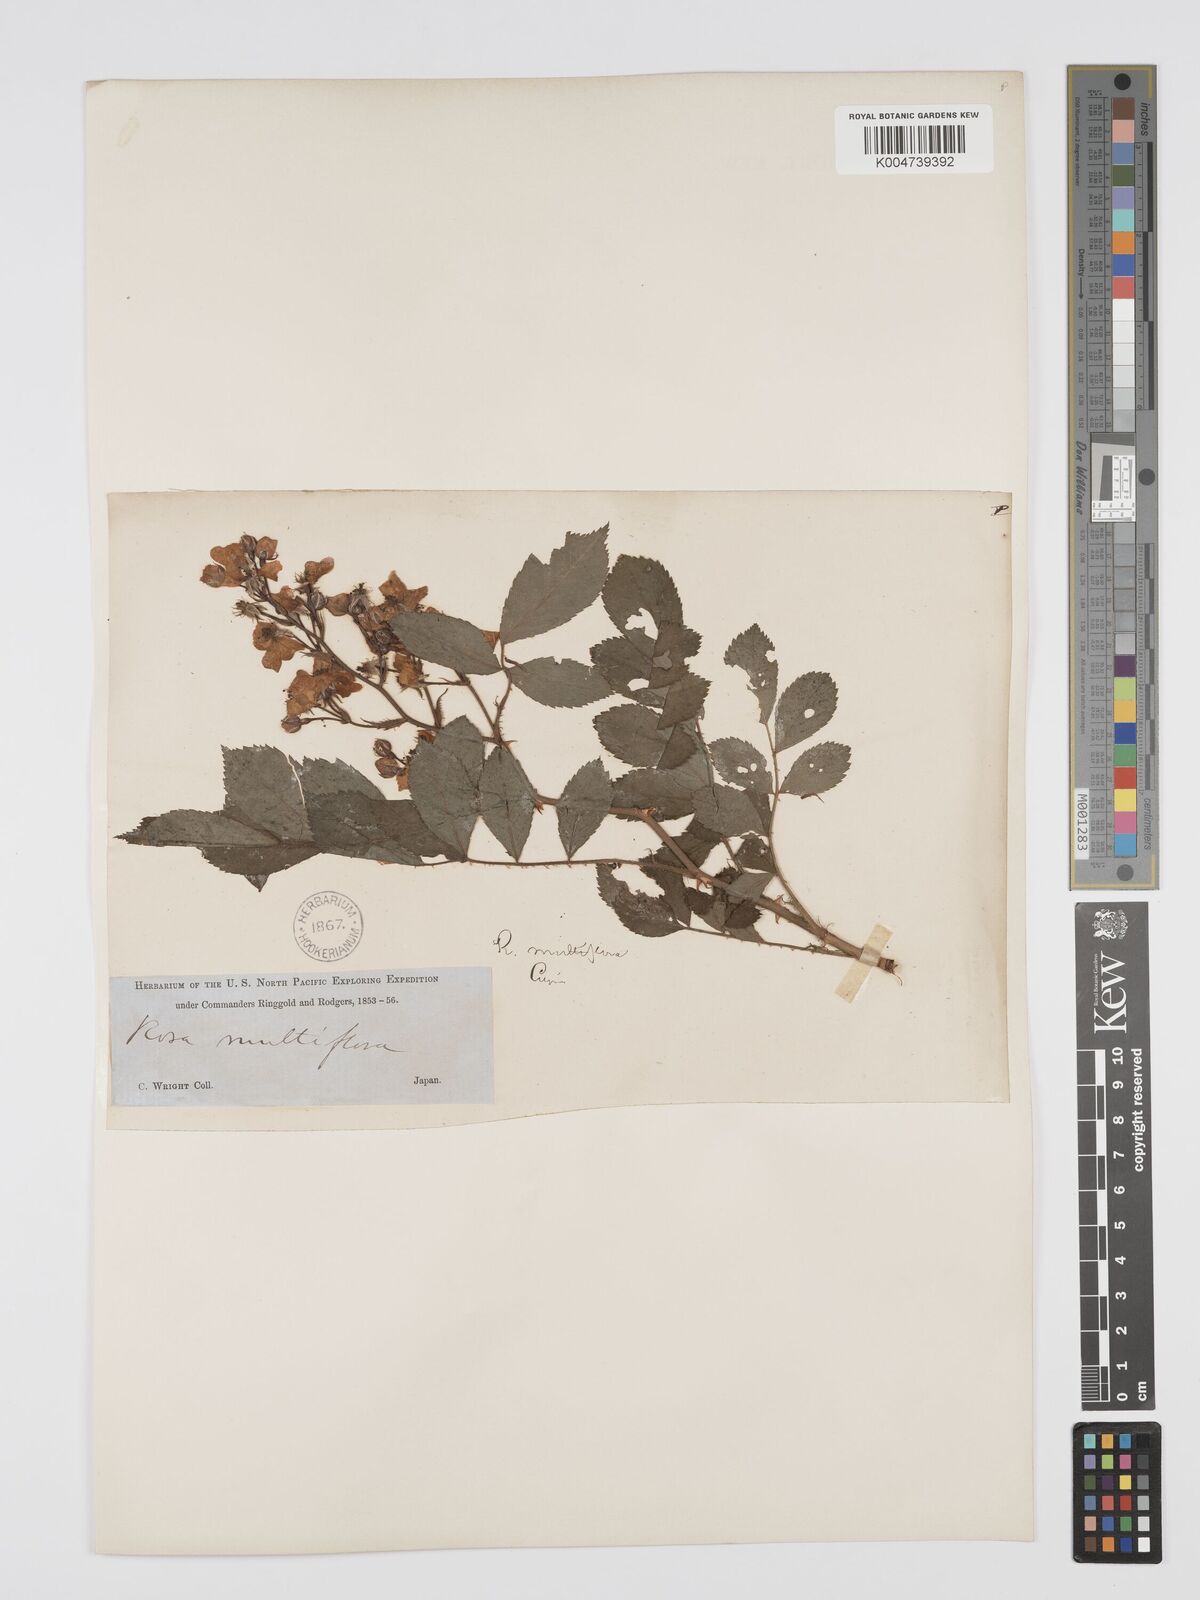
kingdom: Plantae
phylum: Tracheophyta
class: Magnoliopsida
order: Rosales
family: Rosaceae
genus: Rosa
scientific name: Rosa multiflora
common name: Multiflora rose
